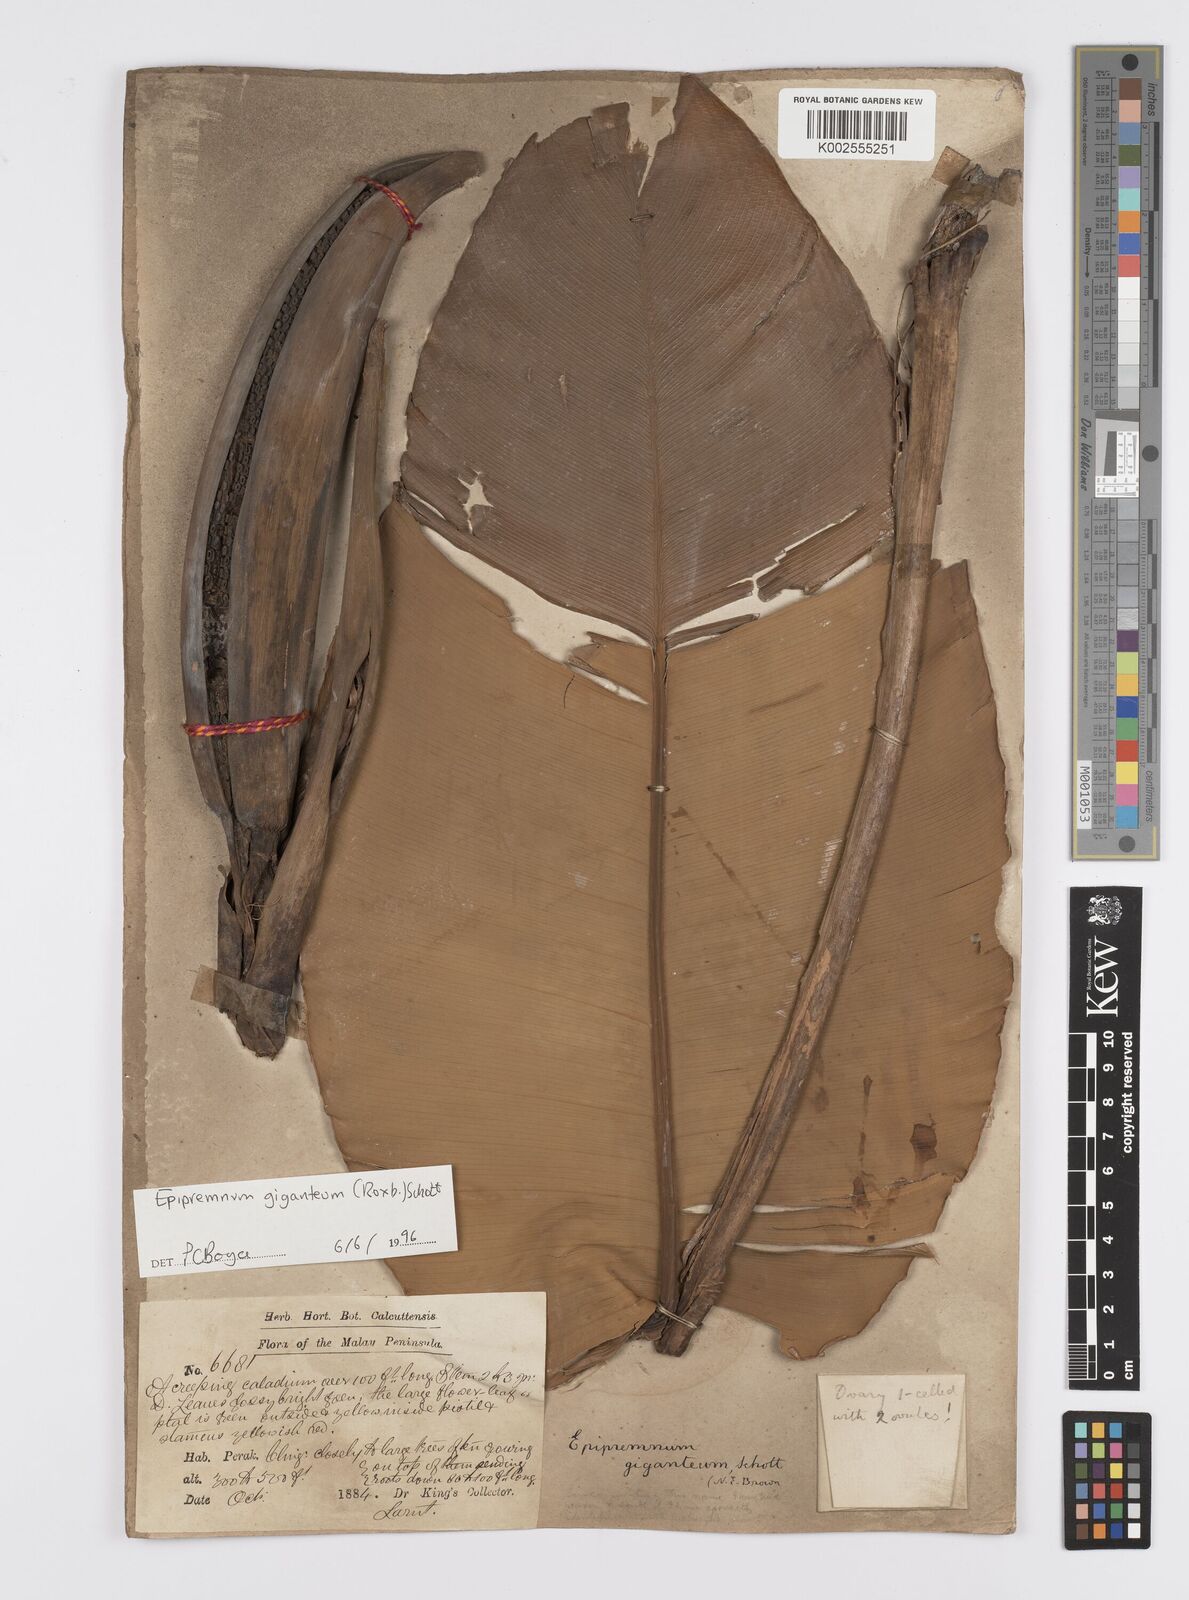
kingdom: Plantae
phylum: Tracheophyta
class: Liliopsida
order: Alismatales
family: Araceae
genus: Epipremnum
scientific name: Epipremnum giganteum
